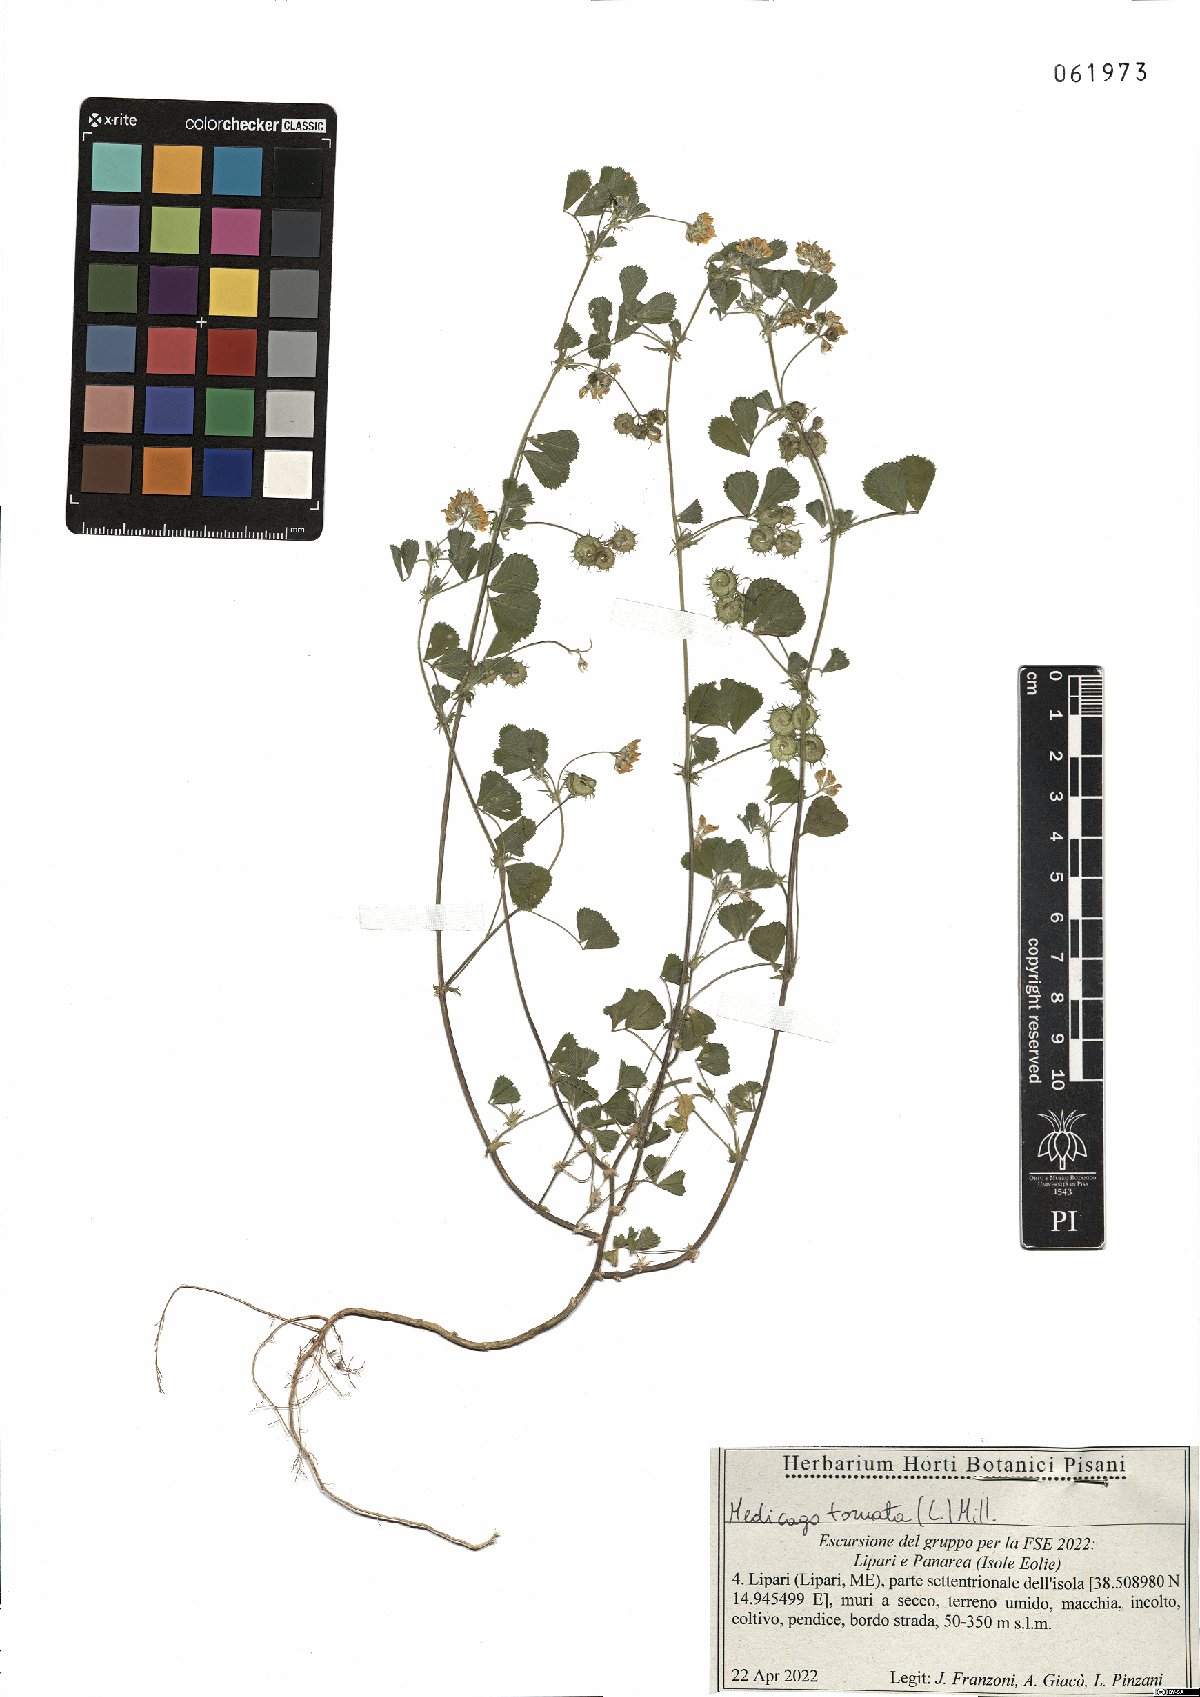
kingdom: Plantae
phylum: Tracheophyta
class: Magnoliopsida
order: Fabales
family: Fabaceae
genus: Medicago
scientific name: Medicago tornata
